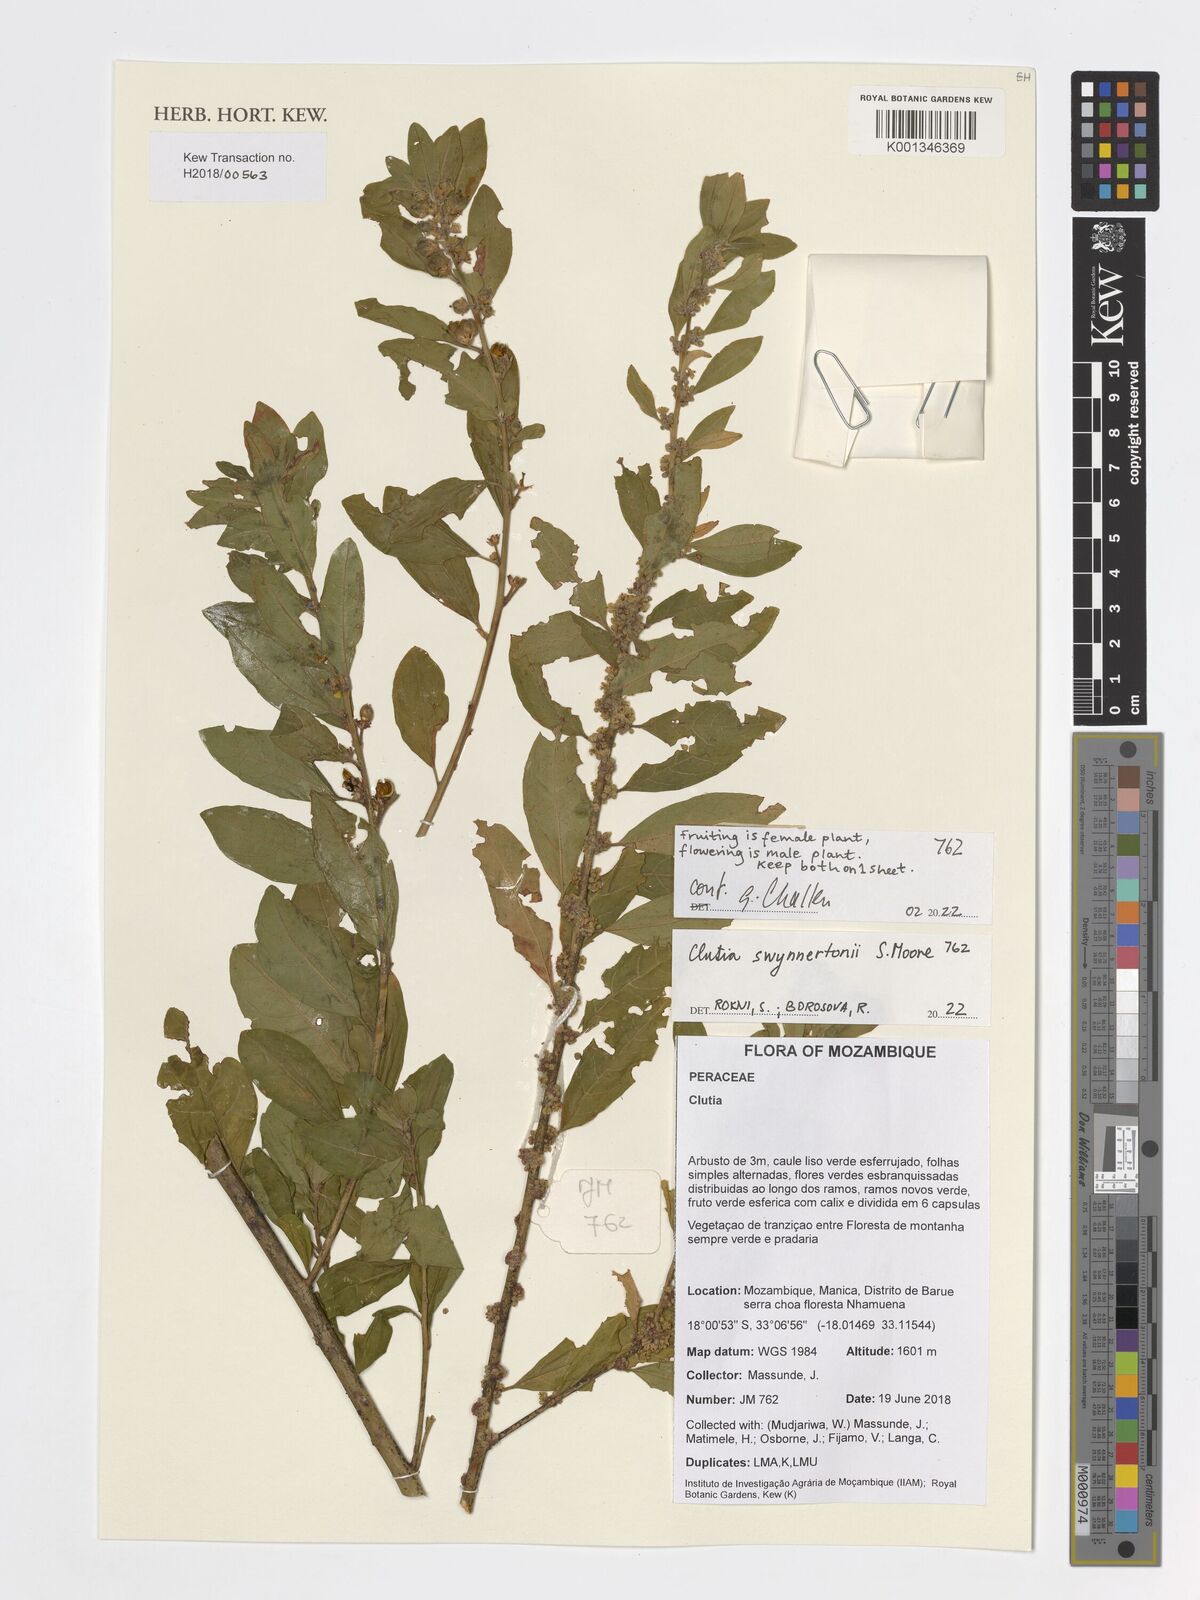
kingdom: Plantae
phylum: Tracheophyta
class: Magnoliopsida
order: Malpighiales
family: Peraceae
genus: Clutia
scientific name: Clutia swynnertonii
